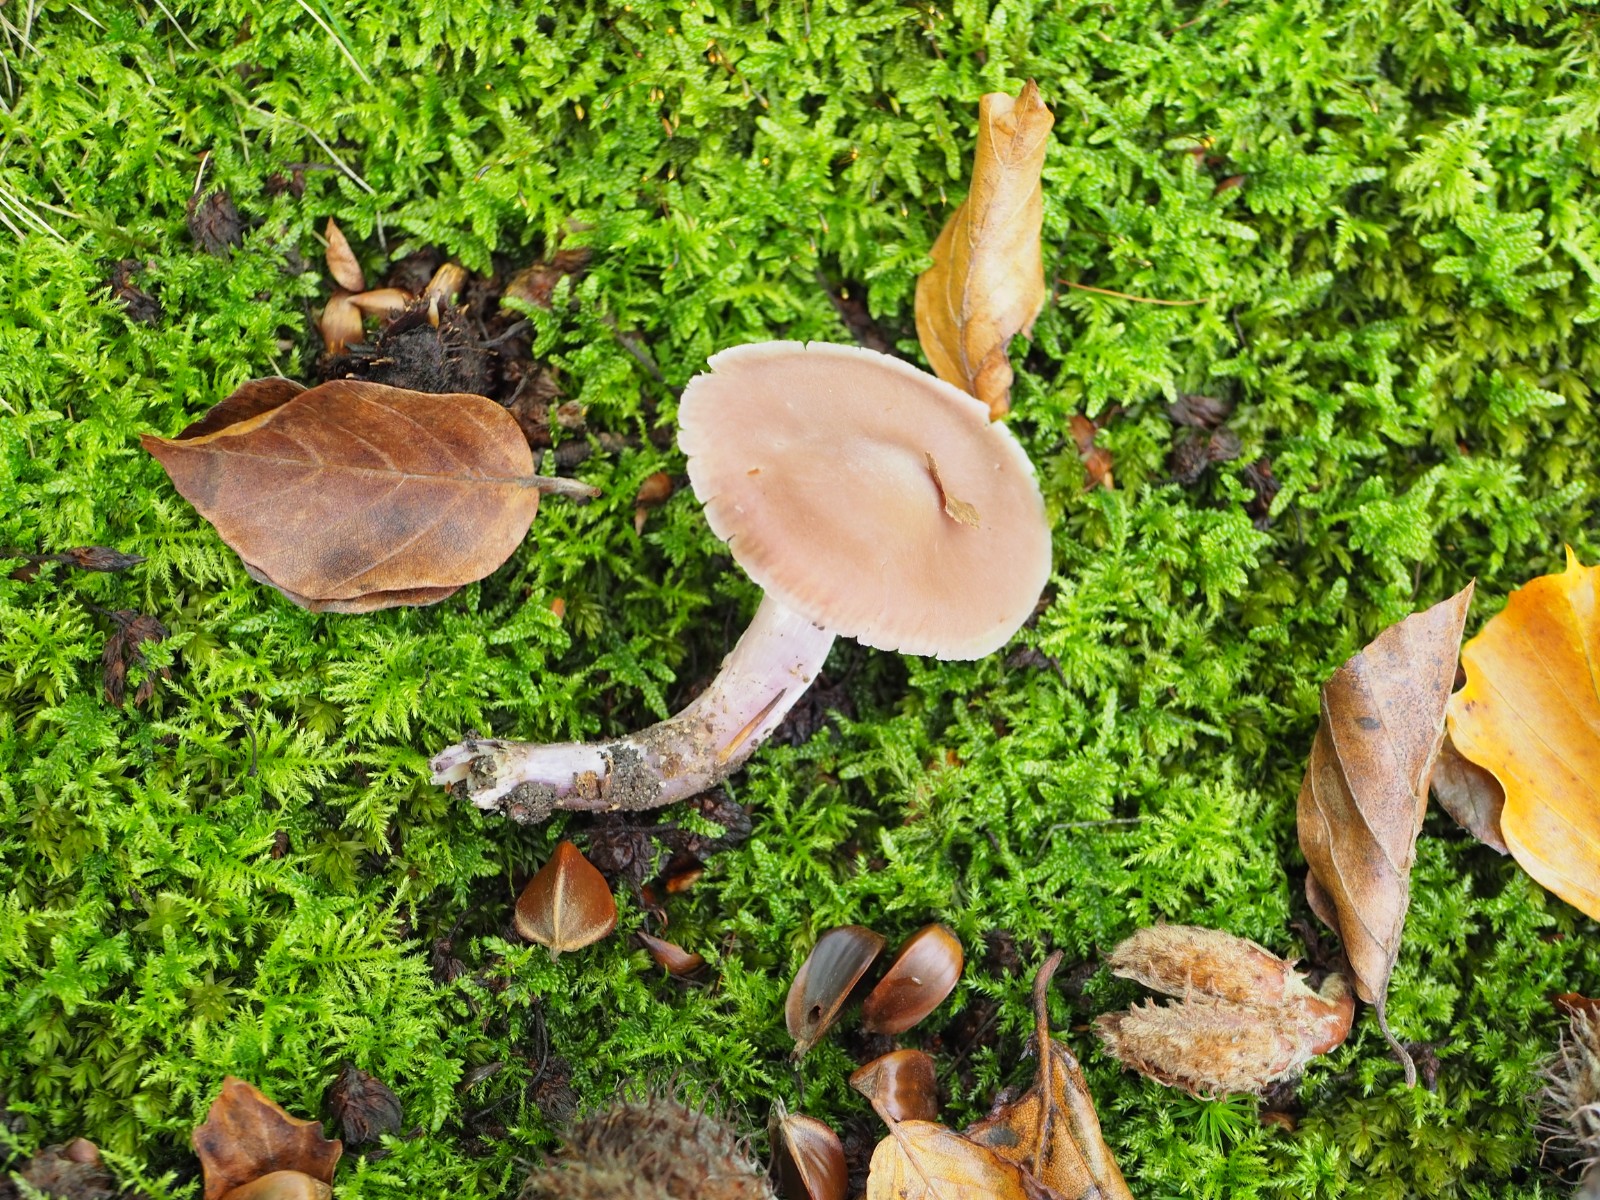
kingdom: Fungi
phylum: Basidiomycota
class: Agaricomycetes
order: Agaricales
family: Cortinariaceae
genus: Cortinarius
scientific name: Cortinarius cagei
